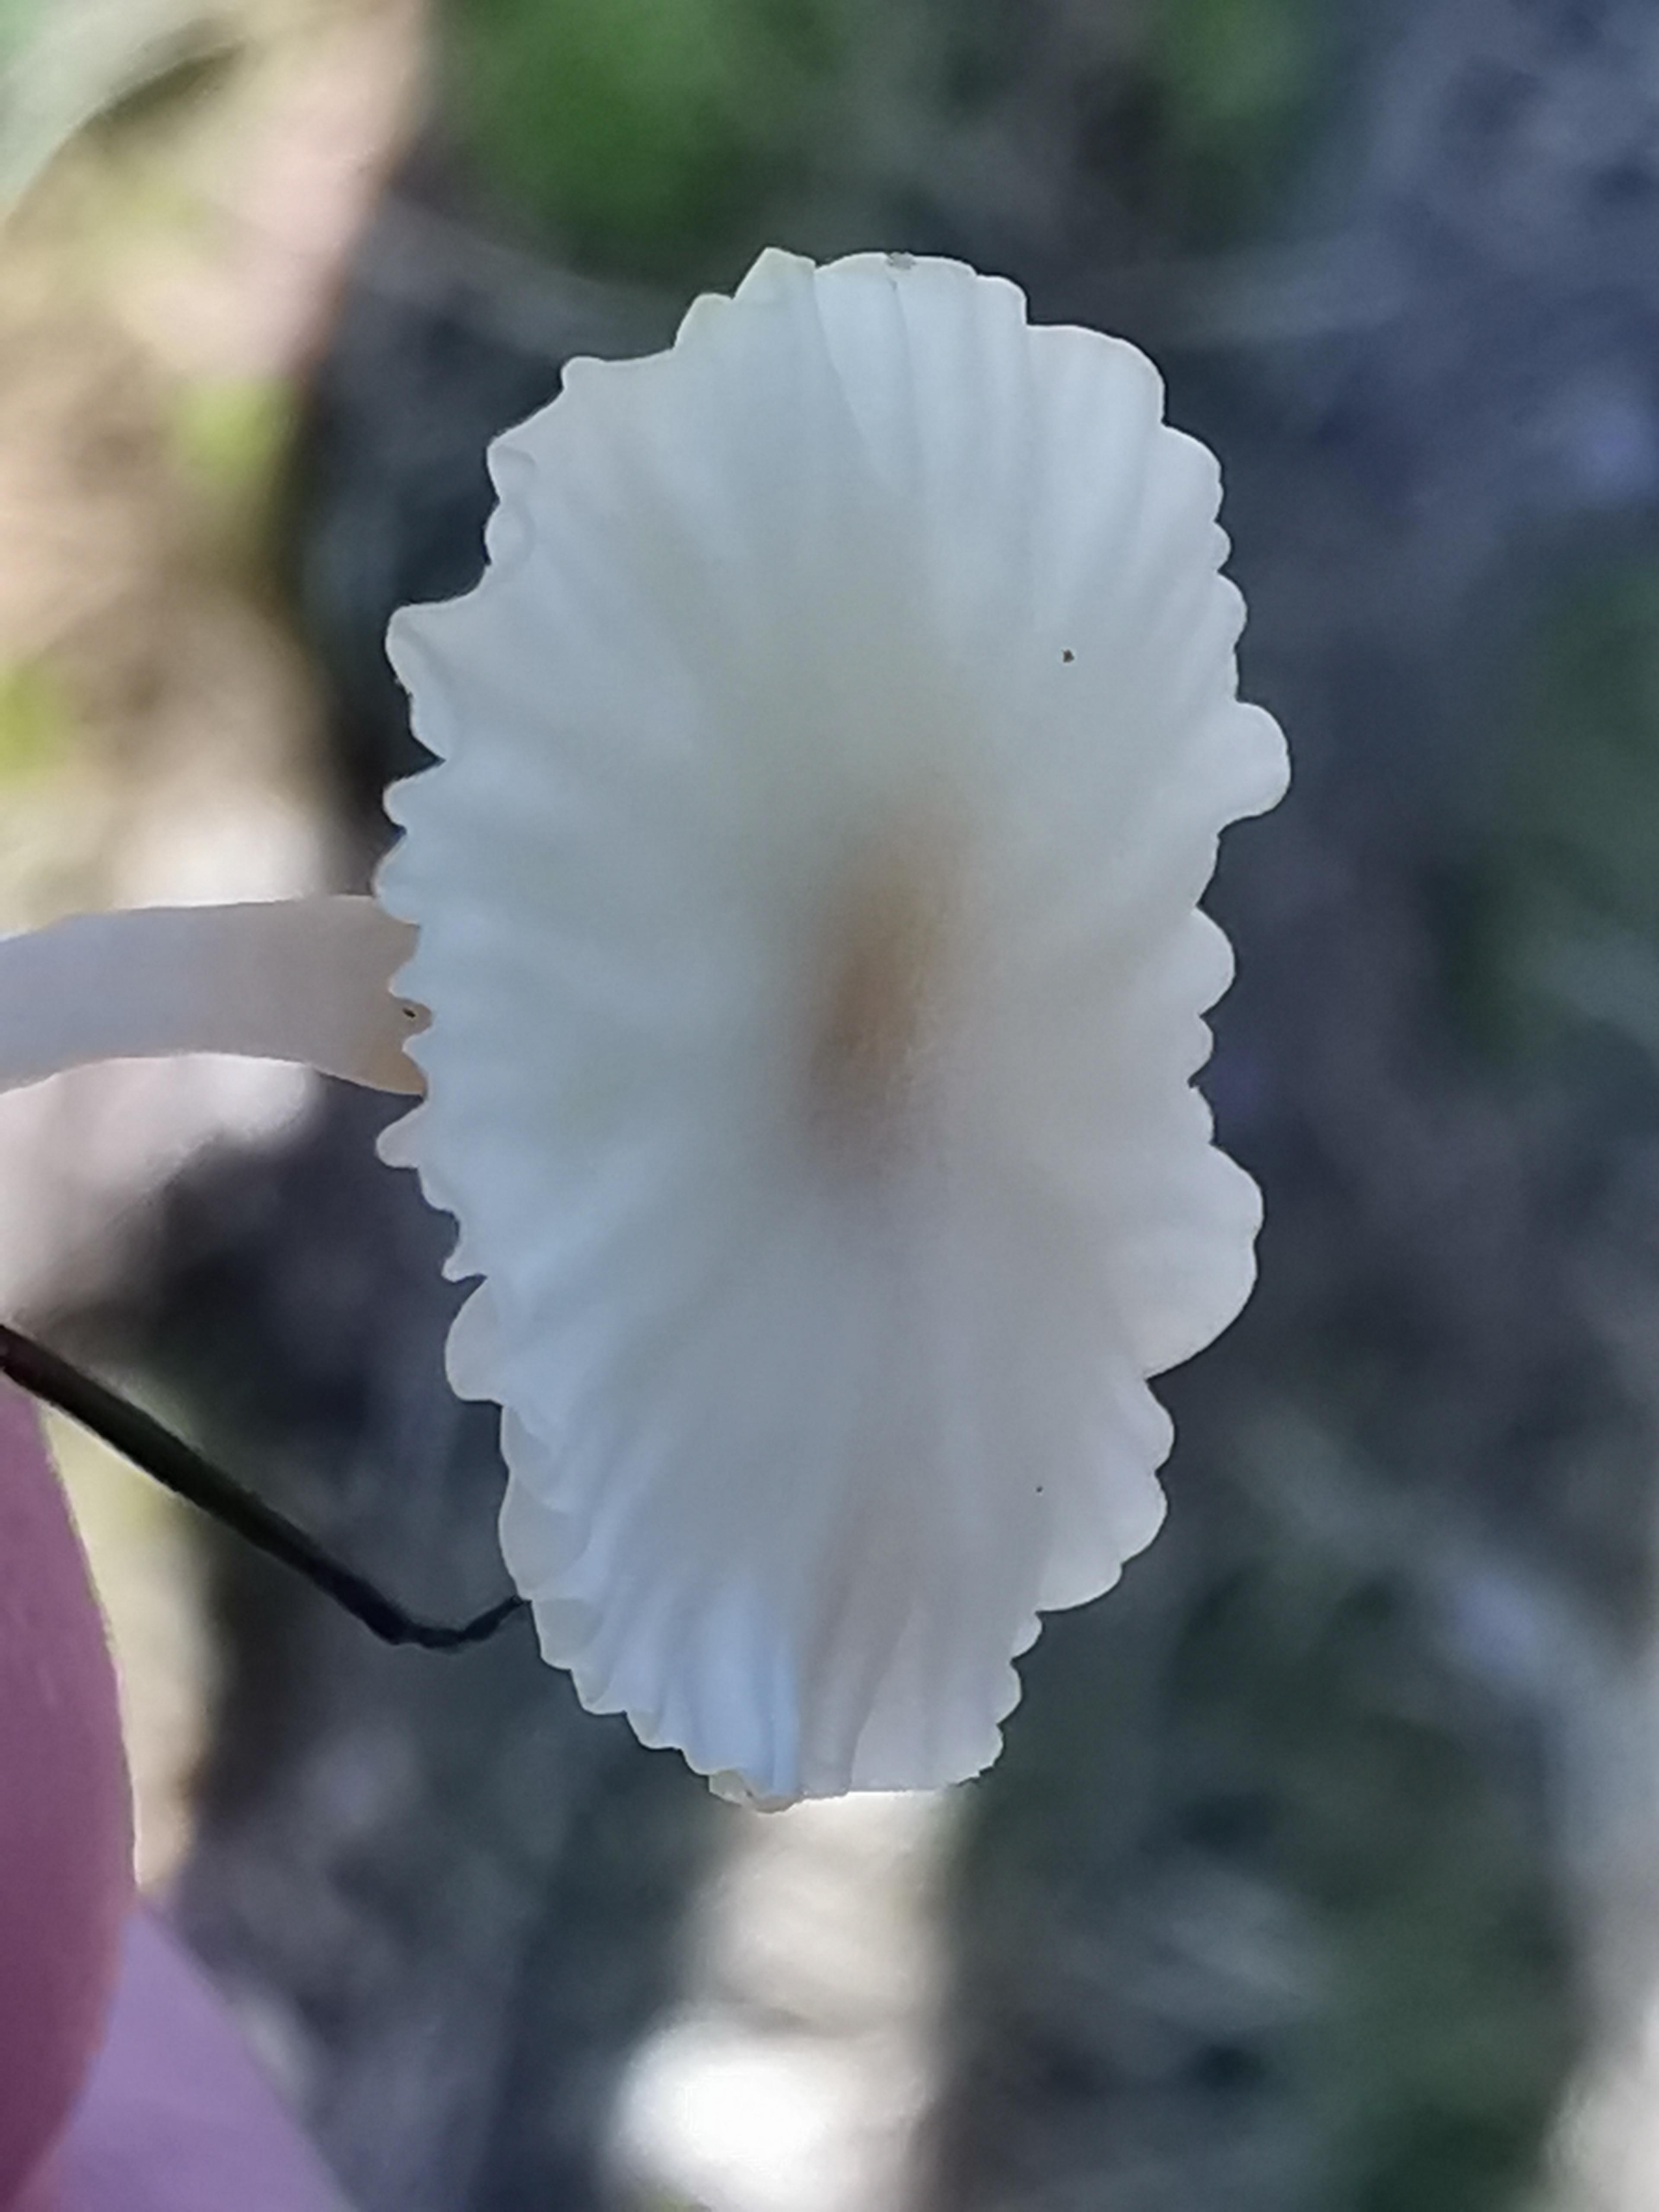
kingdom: Fungi
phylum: Basidiomycota
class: Agaricomycetes
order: Agaricales
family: Hygrophoraceae
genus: Lichenomphalia
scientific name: Lichenomphalia umbellifera
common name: tørve-lavhat
